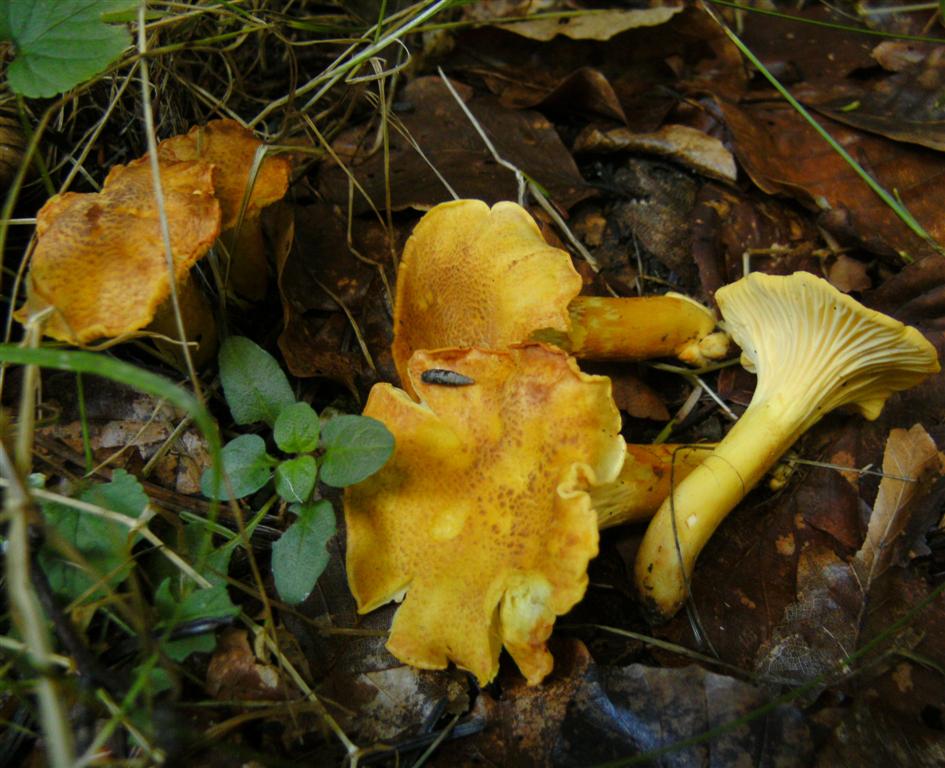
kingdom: Fungi
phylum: Basidiomycota
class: Agaricomycetes
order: Cantharellales
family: Hydnaceae
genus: Cantharellus
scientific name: Cantharellus amethysteus
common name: ametyst-kantarel
